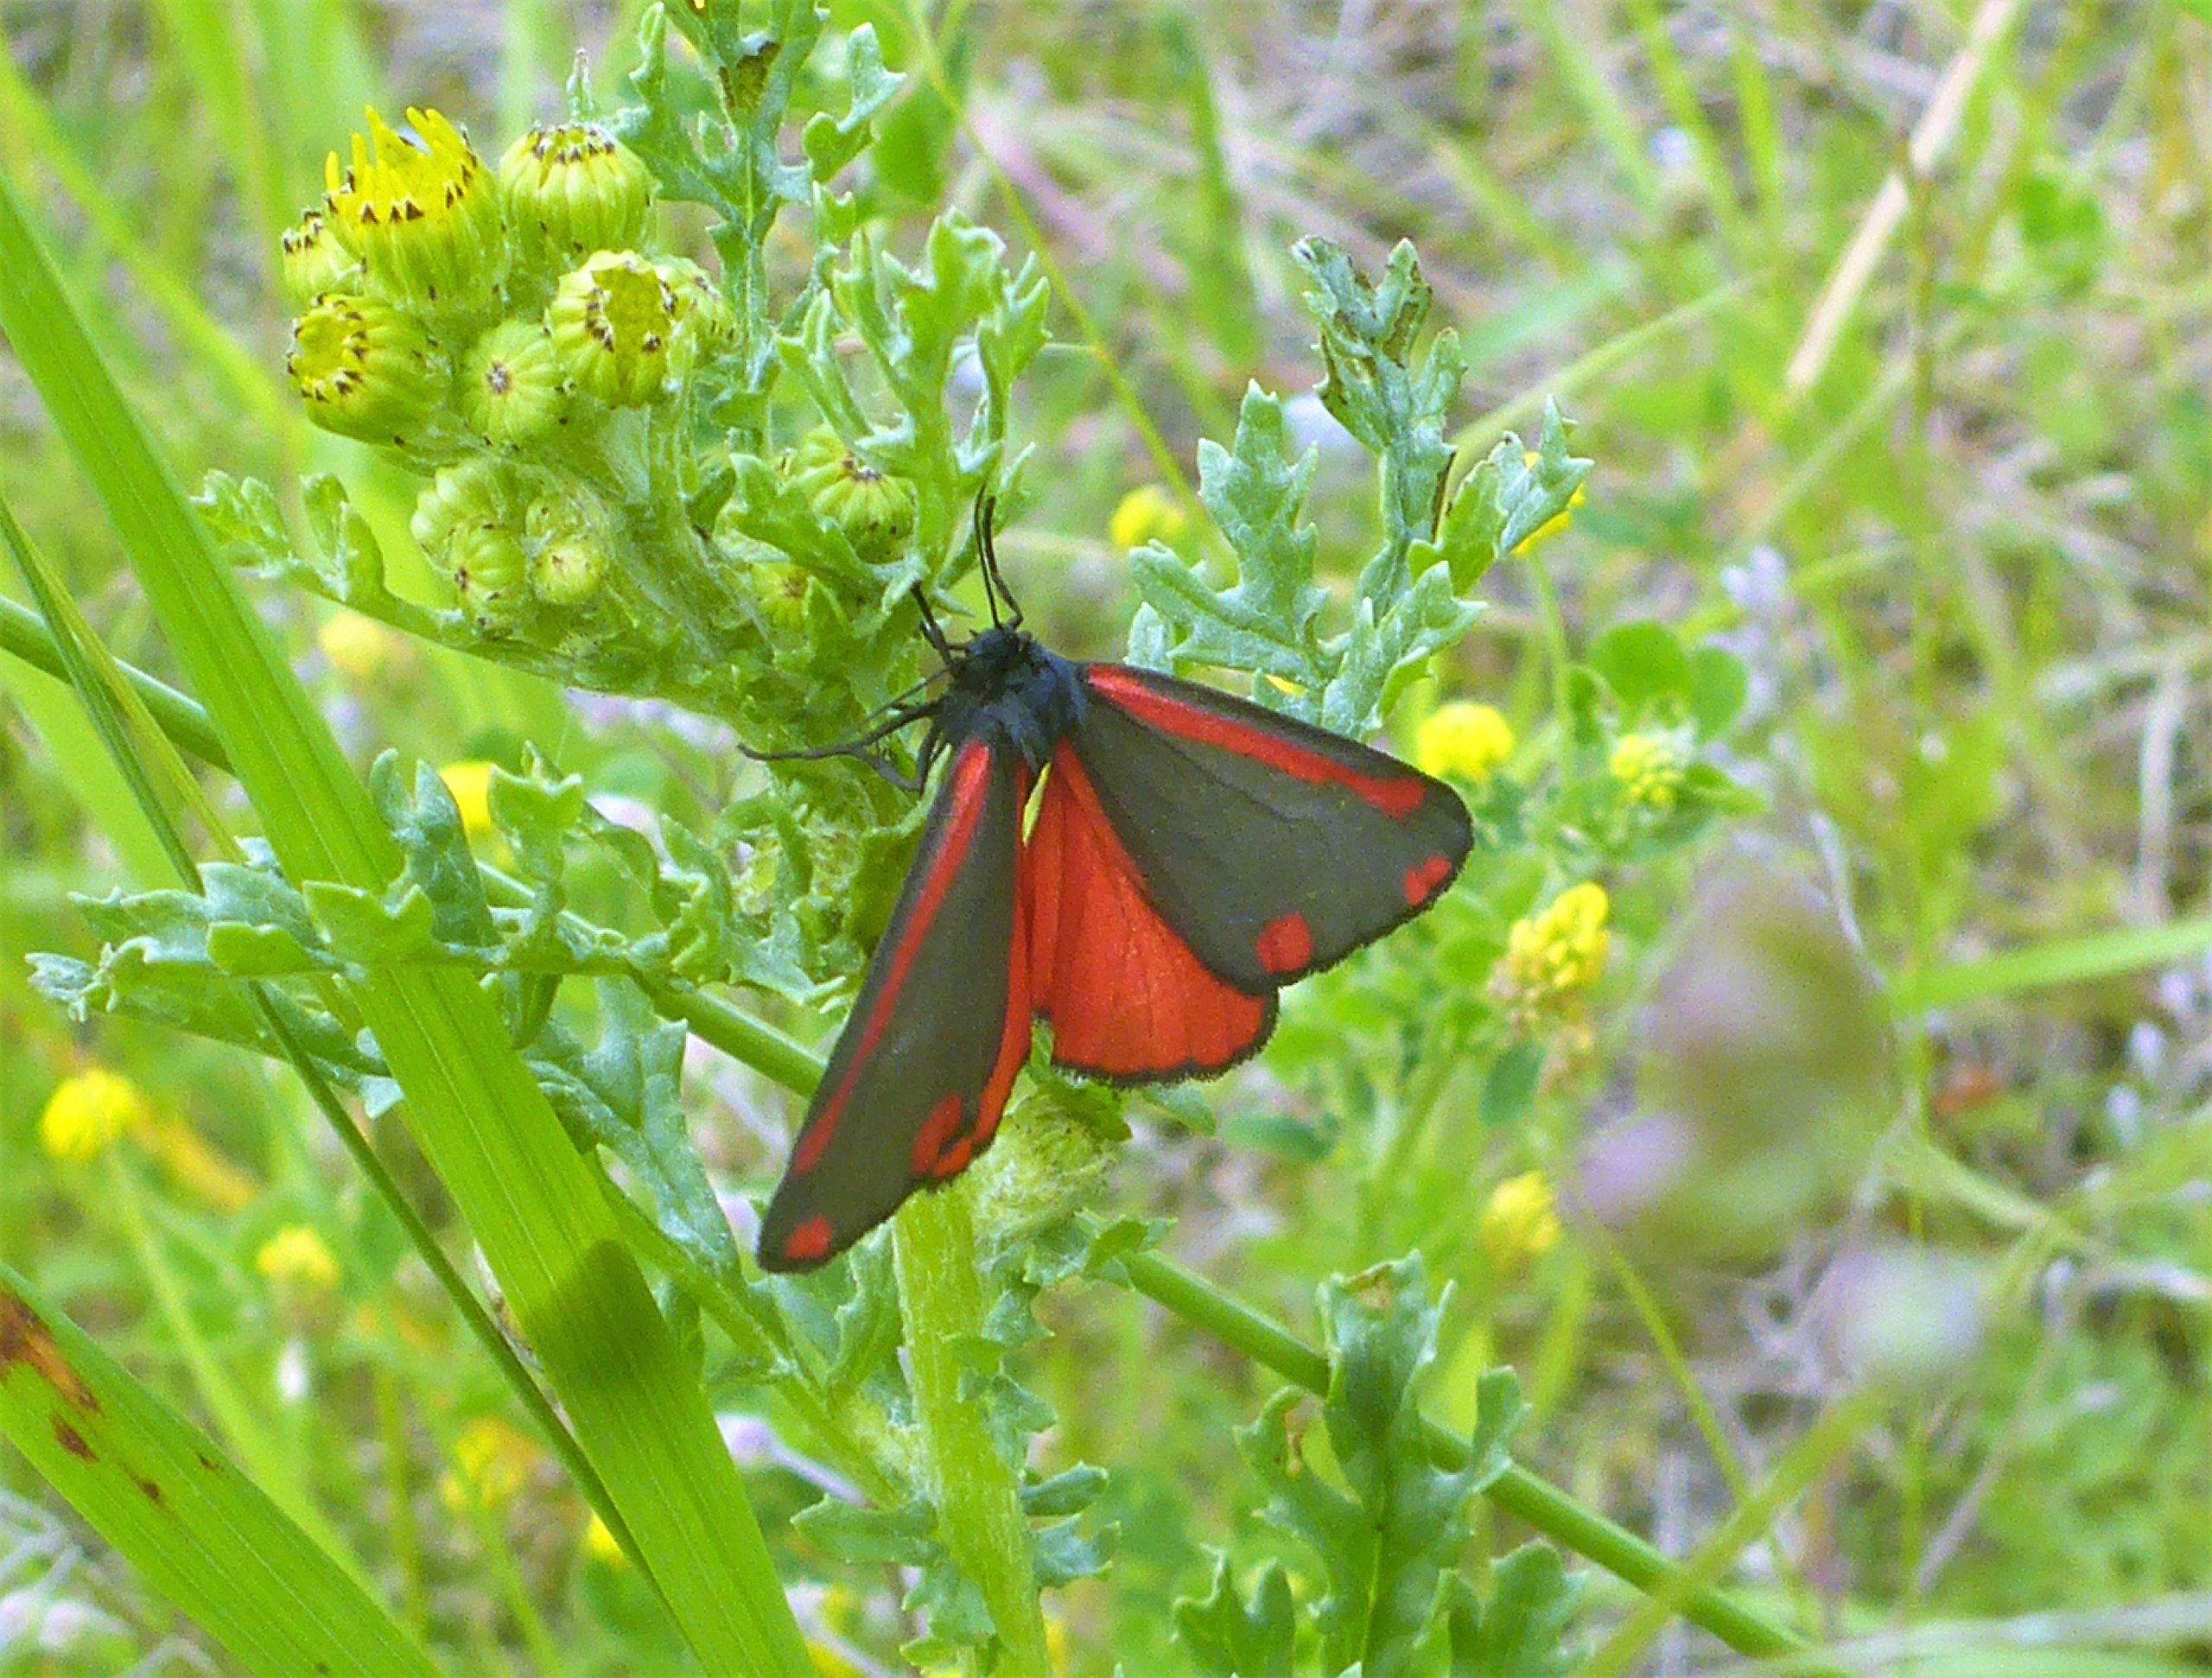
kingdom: Animalia
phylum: Arthropoda
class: Insecta
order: Lepidoptera
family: Erebidae
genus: Tyria
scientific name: Tyria jacobaeae
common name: Blodplet
